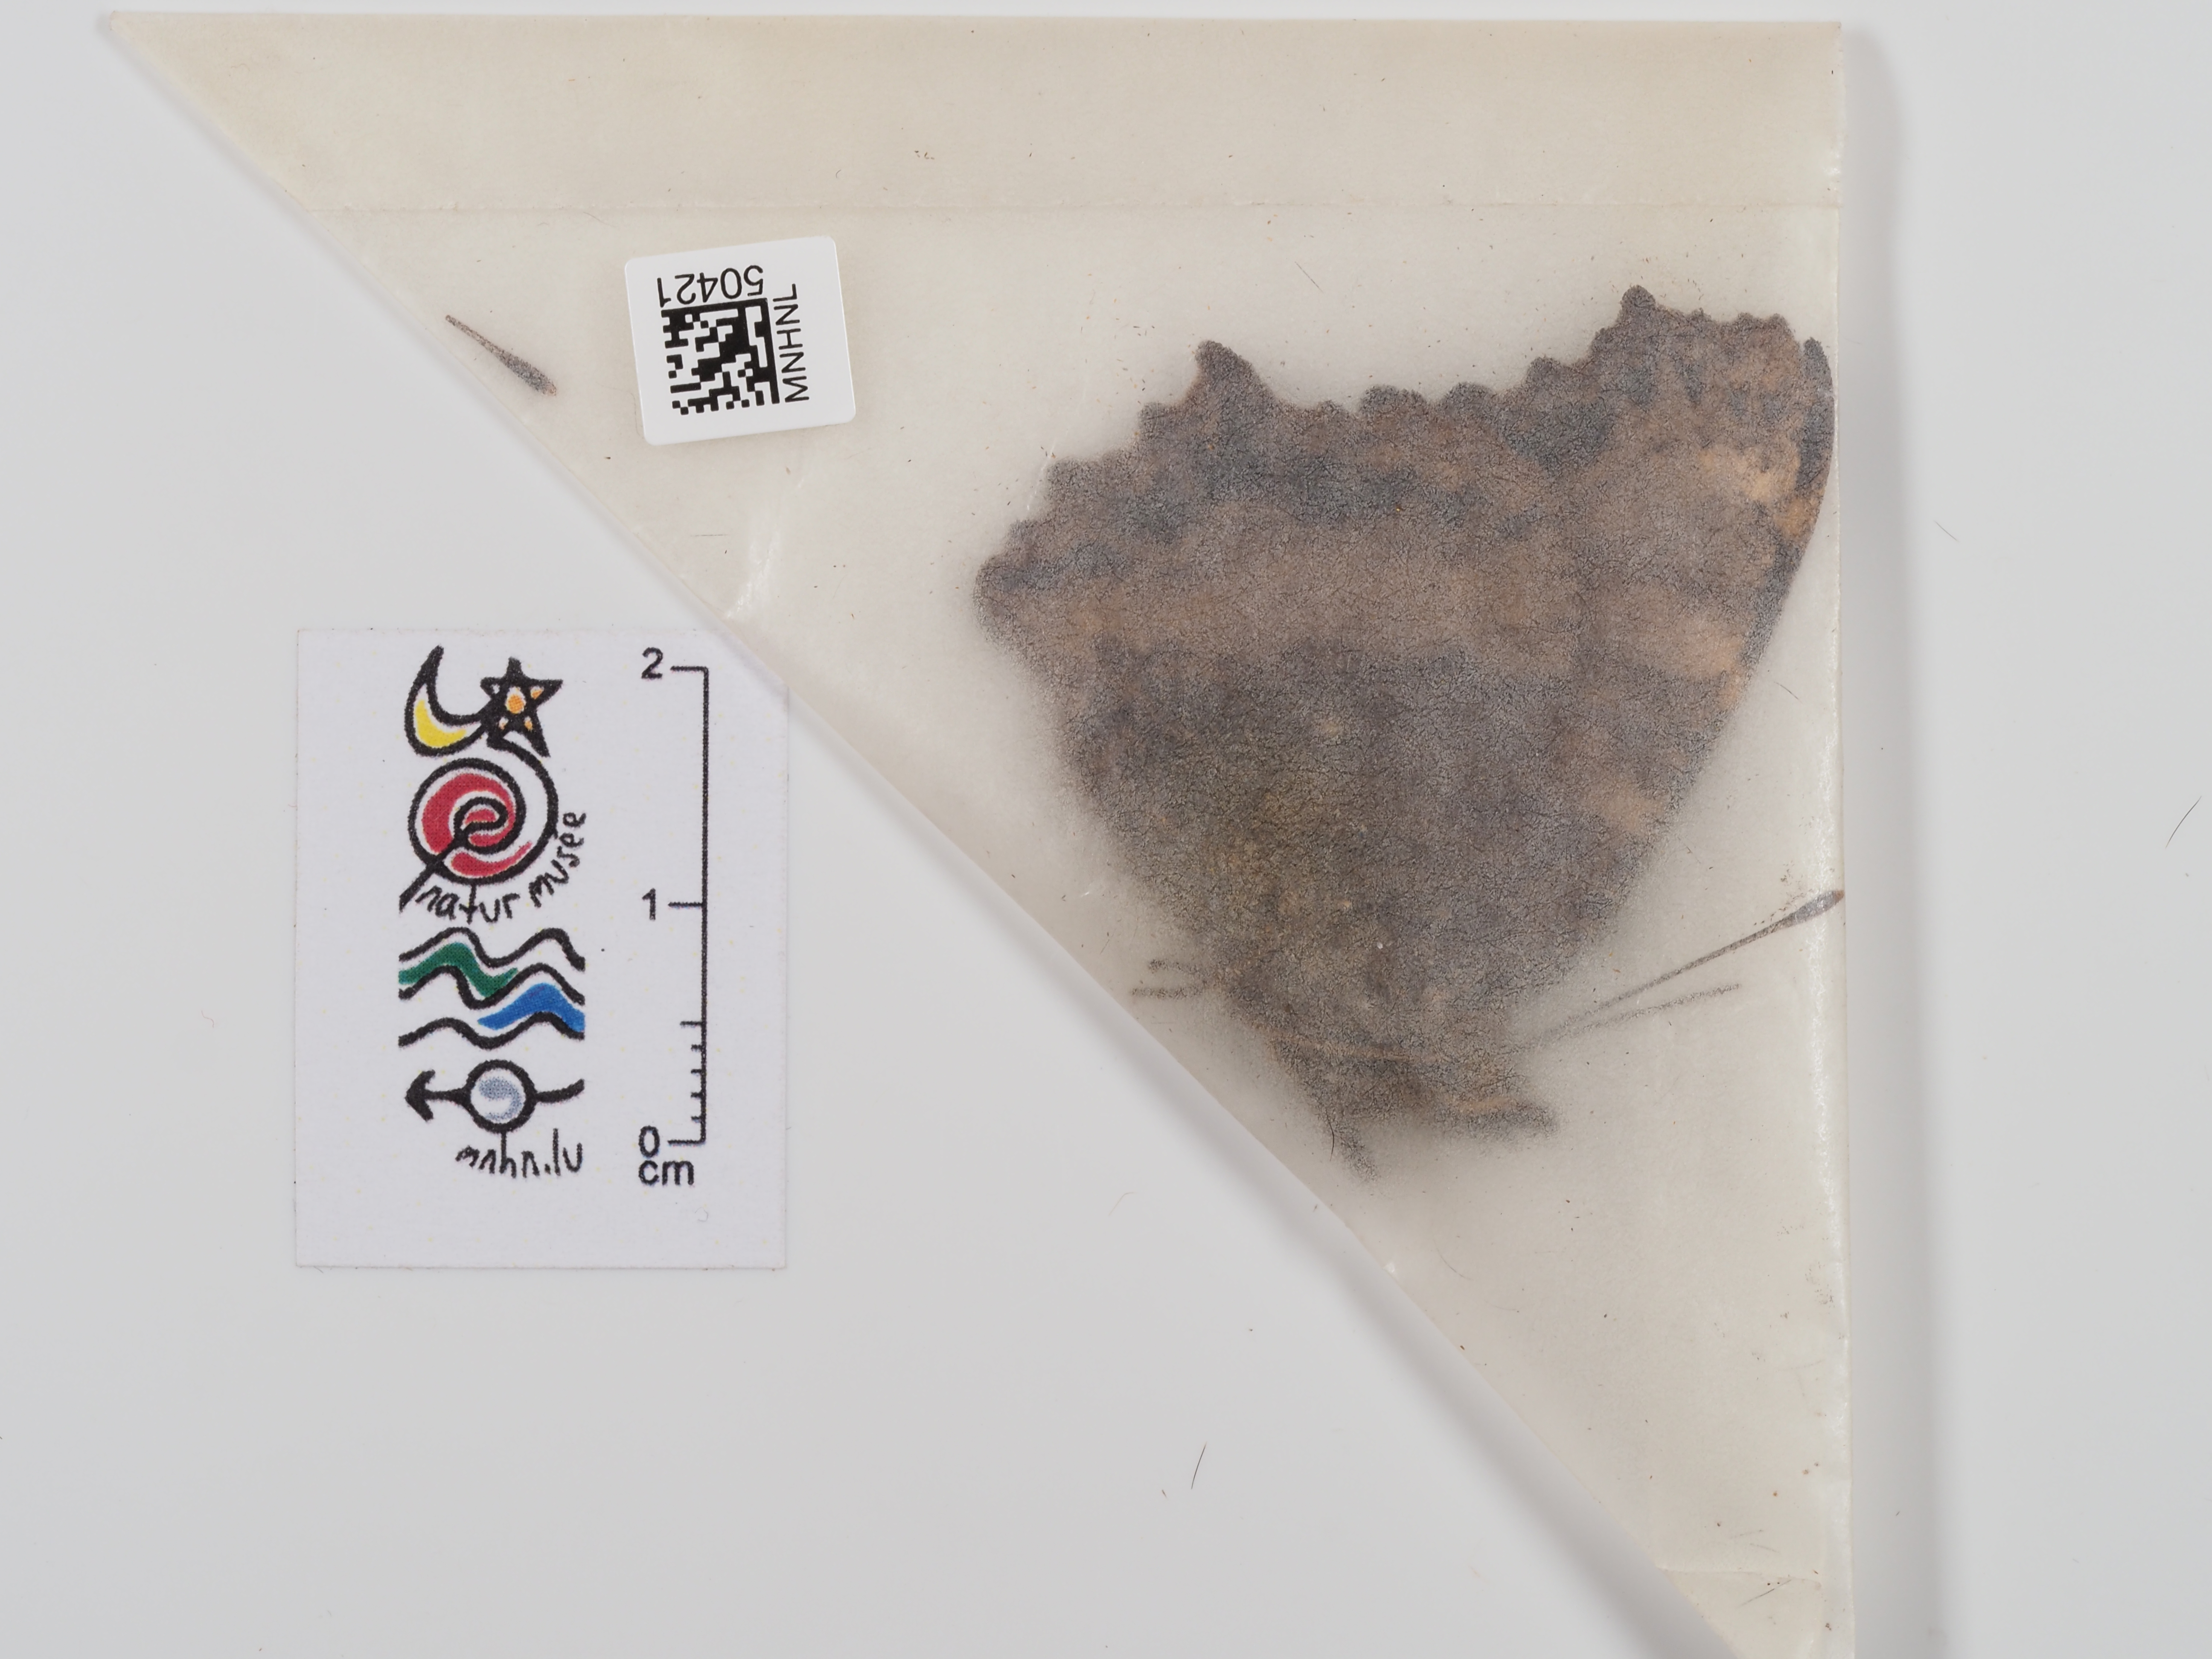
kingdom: Animalia
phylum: Arthropoda
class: Insecta
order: Lepidoptera
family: Nymphalidae
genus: Nymphalis
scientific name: Nymphalis polychloros
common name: Large tortoiseshell
